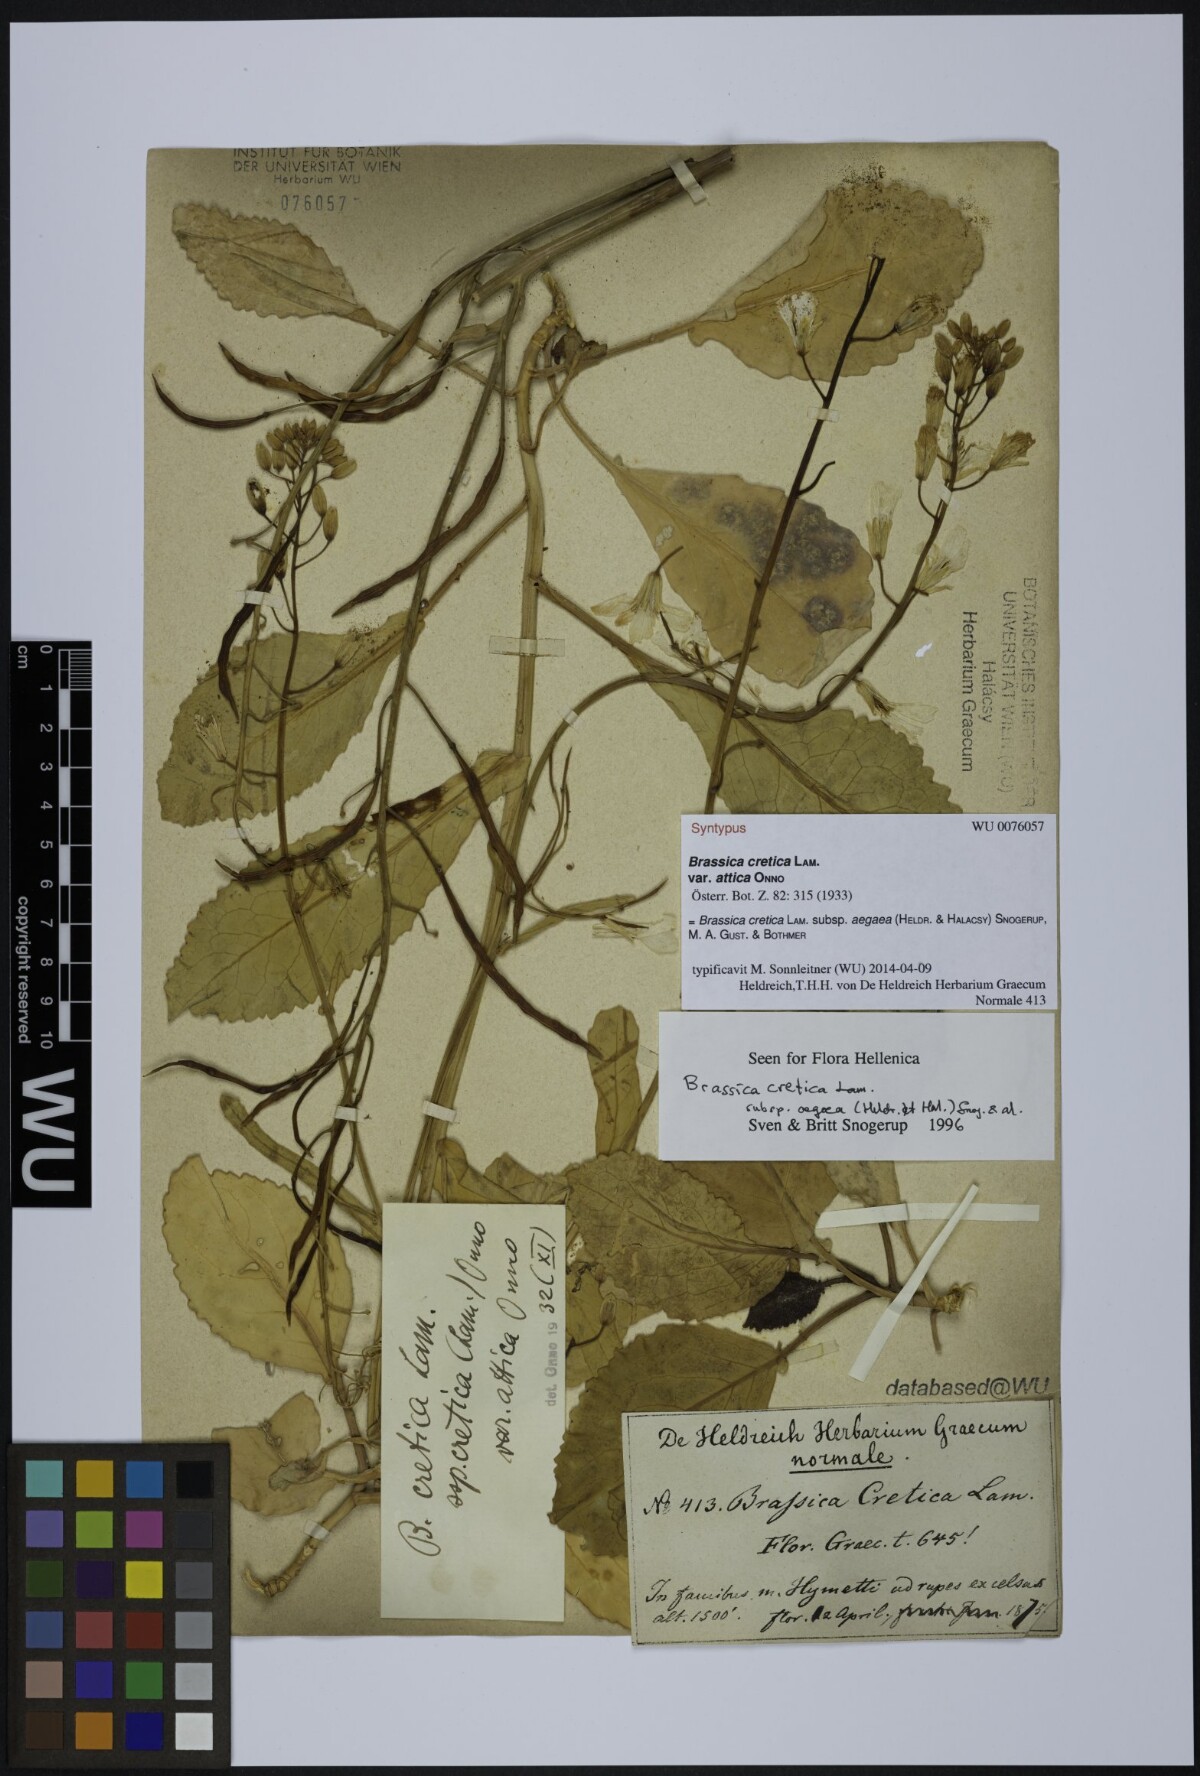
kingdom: Plantae
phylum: Tracheophyta
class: Magnoliopsida
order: Brassicales
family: Brassicaceae
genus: Brassica
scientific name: Brassica cretica
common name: Mustard
